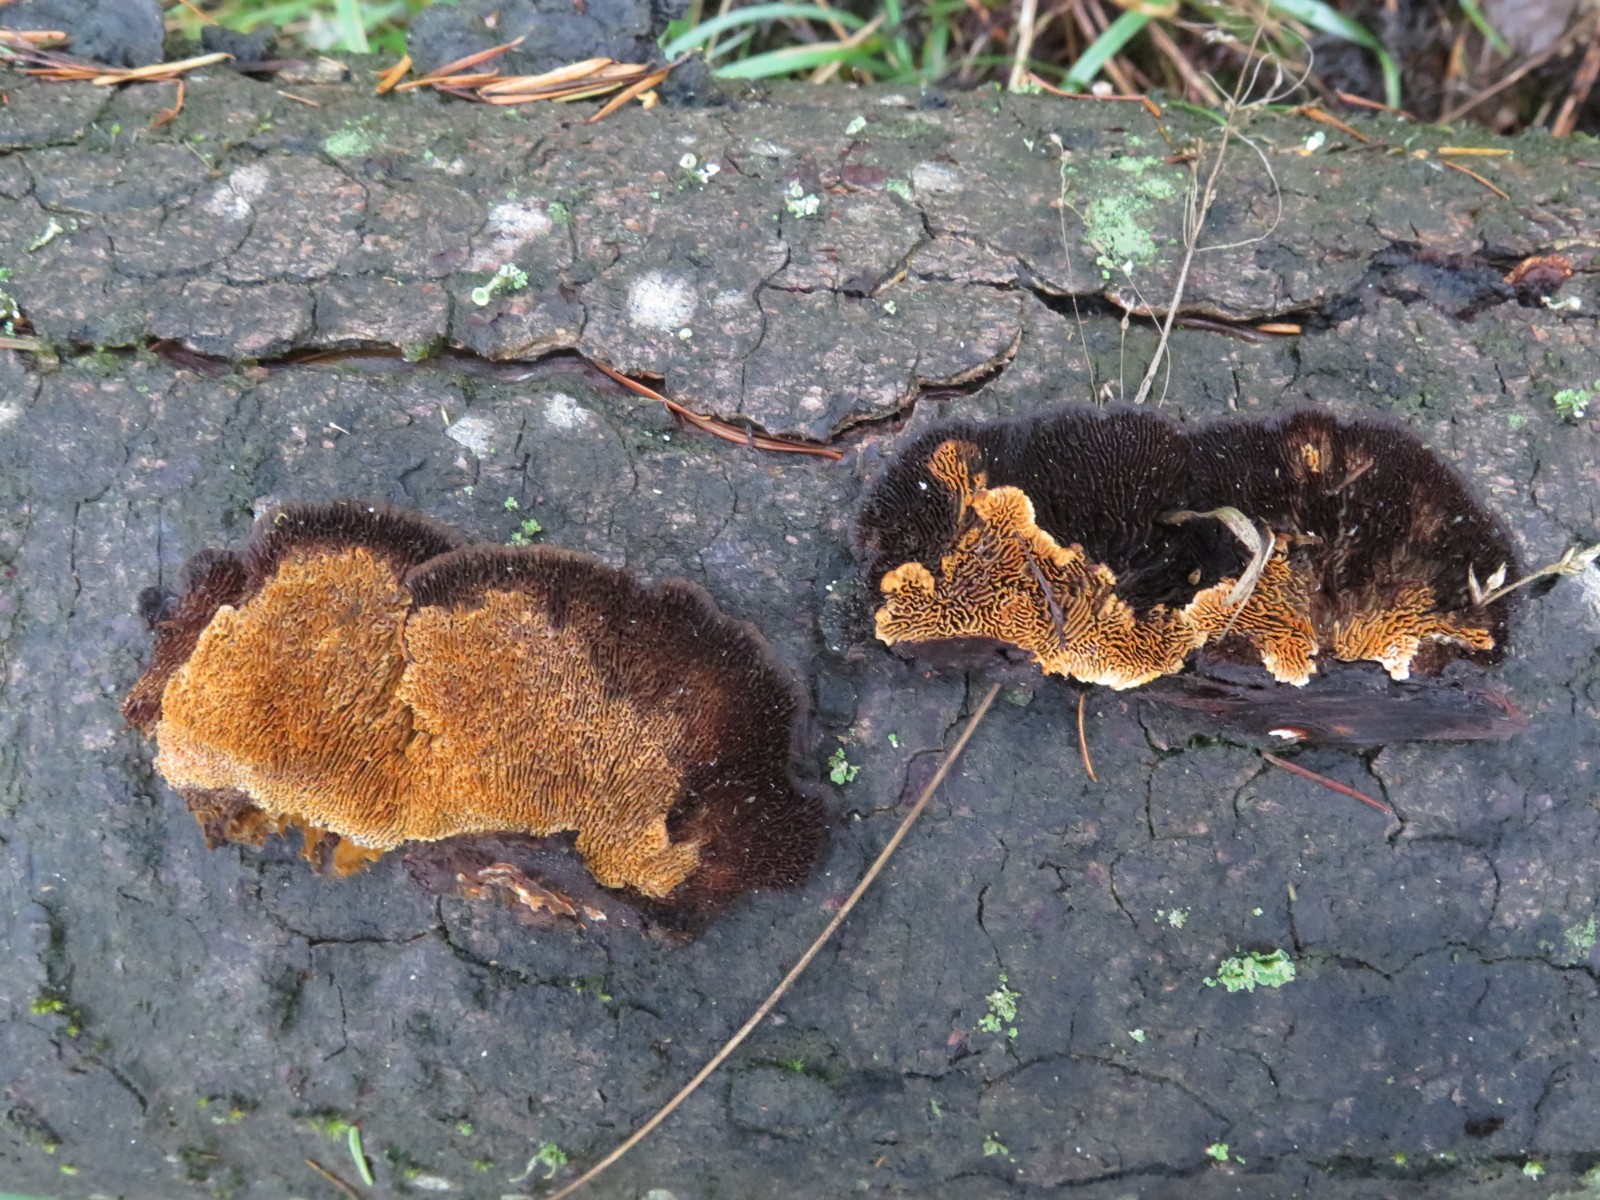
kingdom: Fungi
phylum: Basidiomycota
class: Agaricomycetes
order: Gloeophyllales
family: Gloeophyllaceae
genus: Gloeophyllum
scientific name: Gloeophyllum sepiarium
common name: fyrre-korkhat
